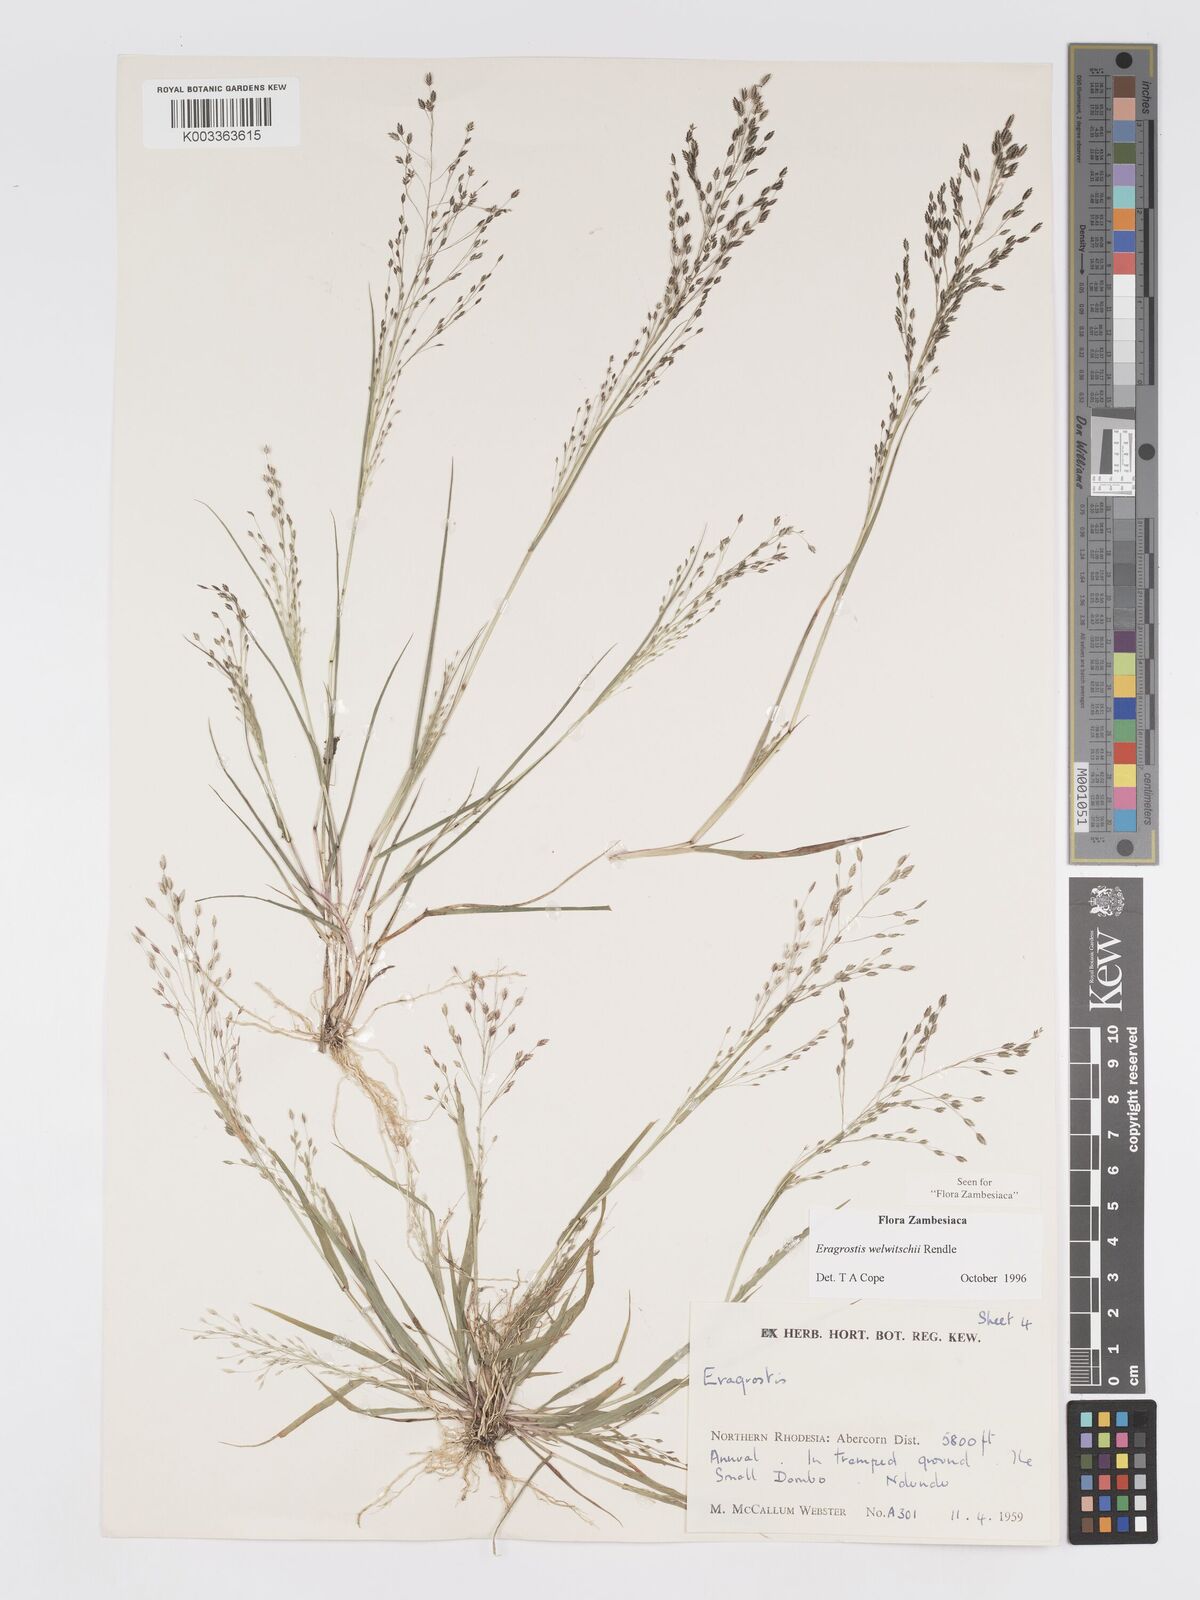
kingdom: Plantae
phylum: Tracheophyta
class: Liliopsida
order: Poales
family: Poaceae
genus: Eragrostis
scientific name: Eragrostis welwitschii
